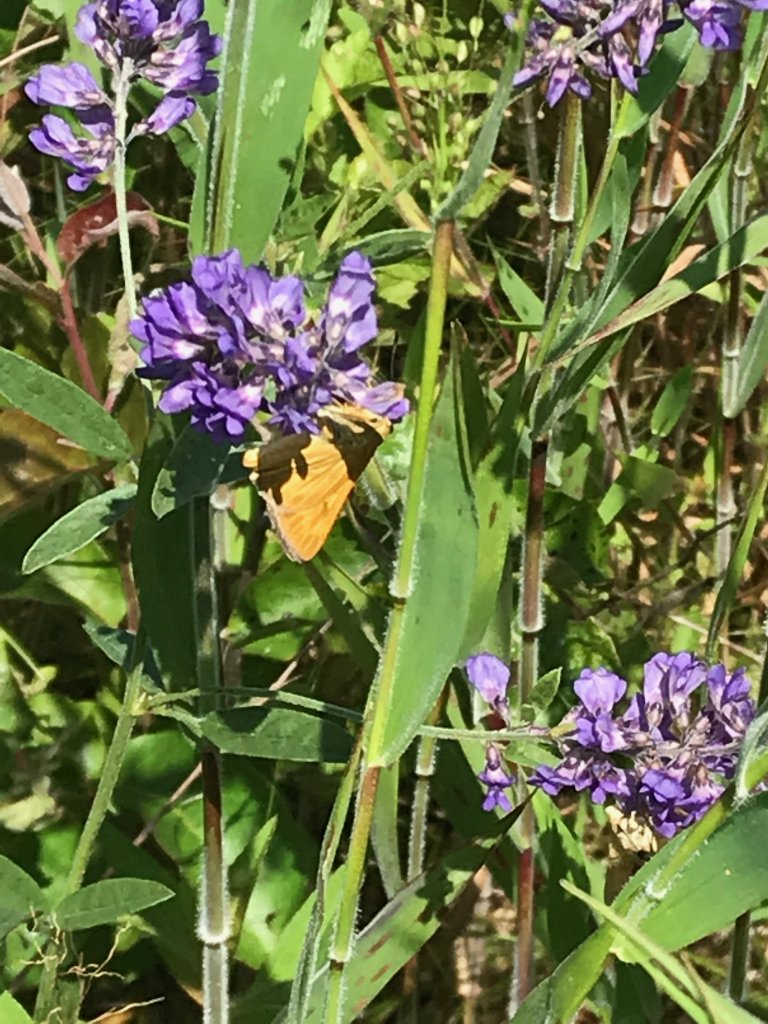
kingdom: Animalia
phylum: Arthropoda
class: Insecta
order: Lepidoptera
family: Hesperiidae
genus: Problema
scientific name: Problema byssus
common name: Byssus Skipper
